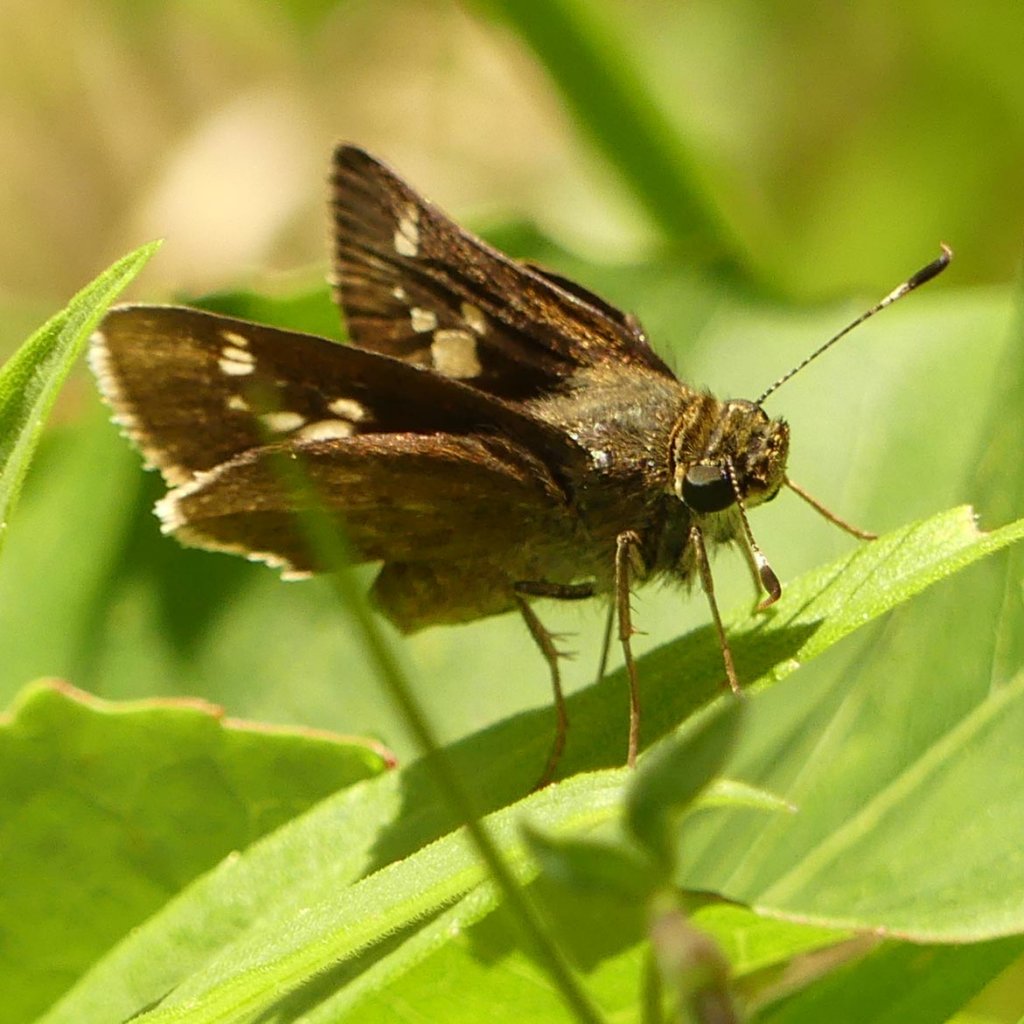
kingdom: Animalia
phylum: Arthropoda
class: Insecta
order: Lepidoptera
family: Hesperiidae
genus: Vernia
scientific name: Vernia verna
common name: Little Glassywing
